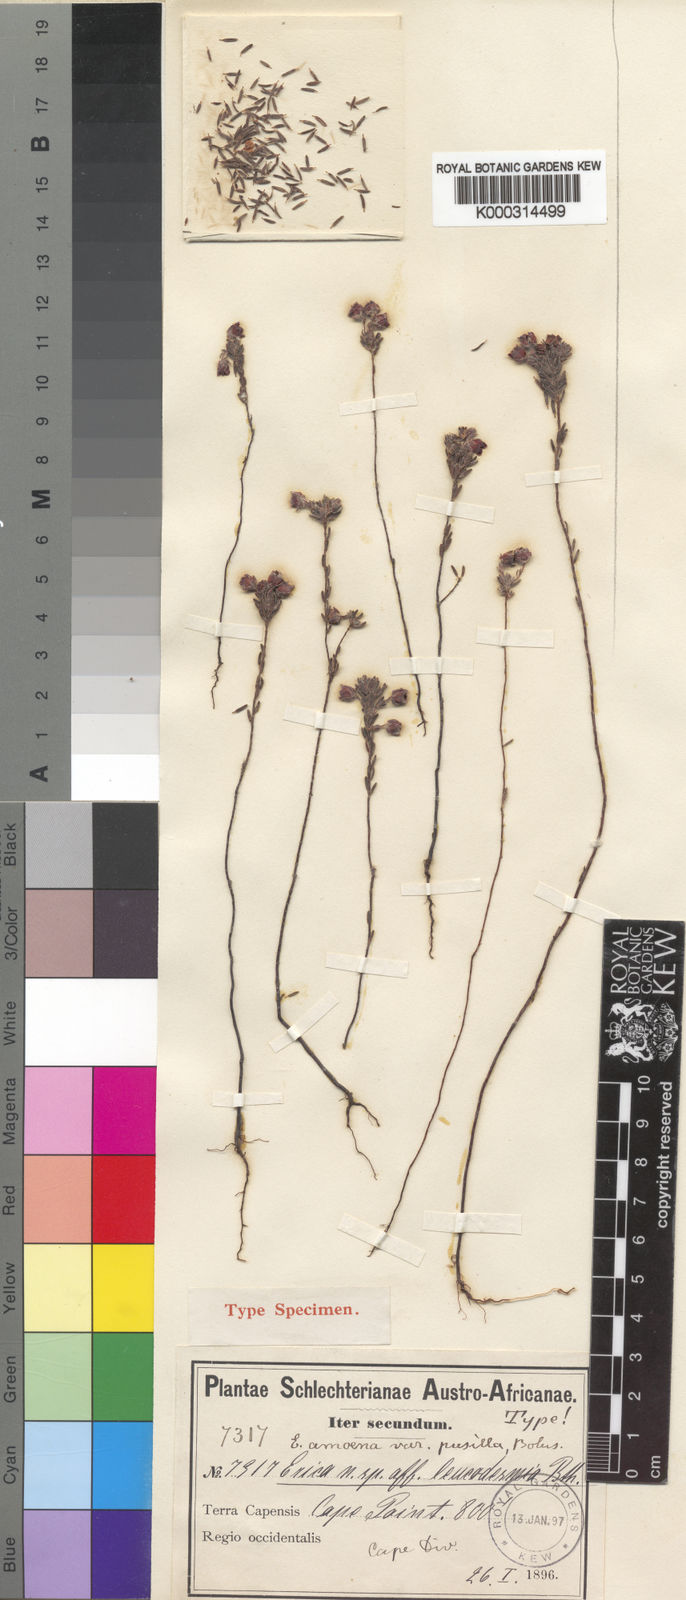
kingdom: Plantae
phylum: Tracheophyta
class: Magnoliopsida
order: Ericales
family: Ericaceae
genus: Erica
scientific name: Erica
